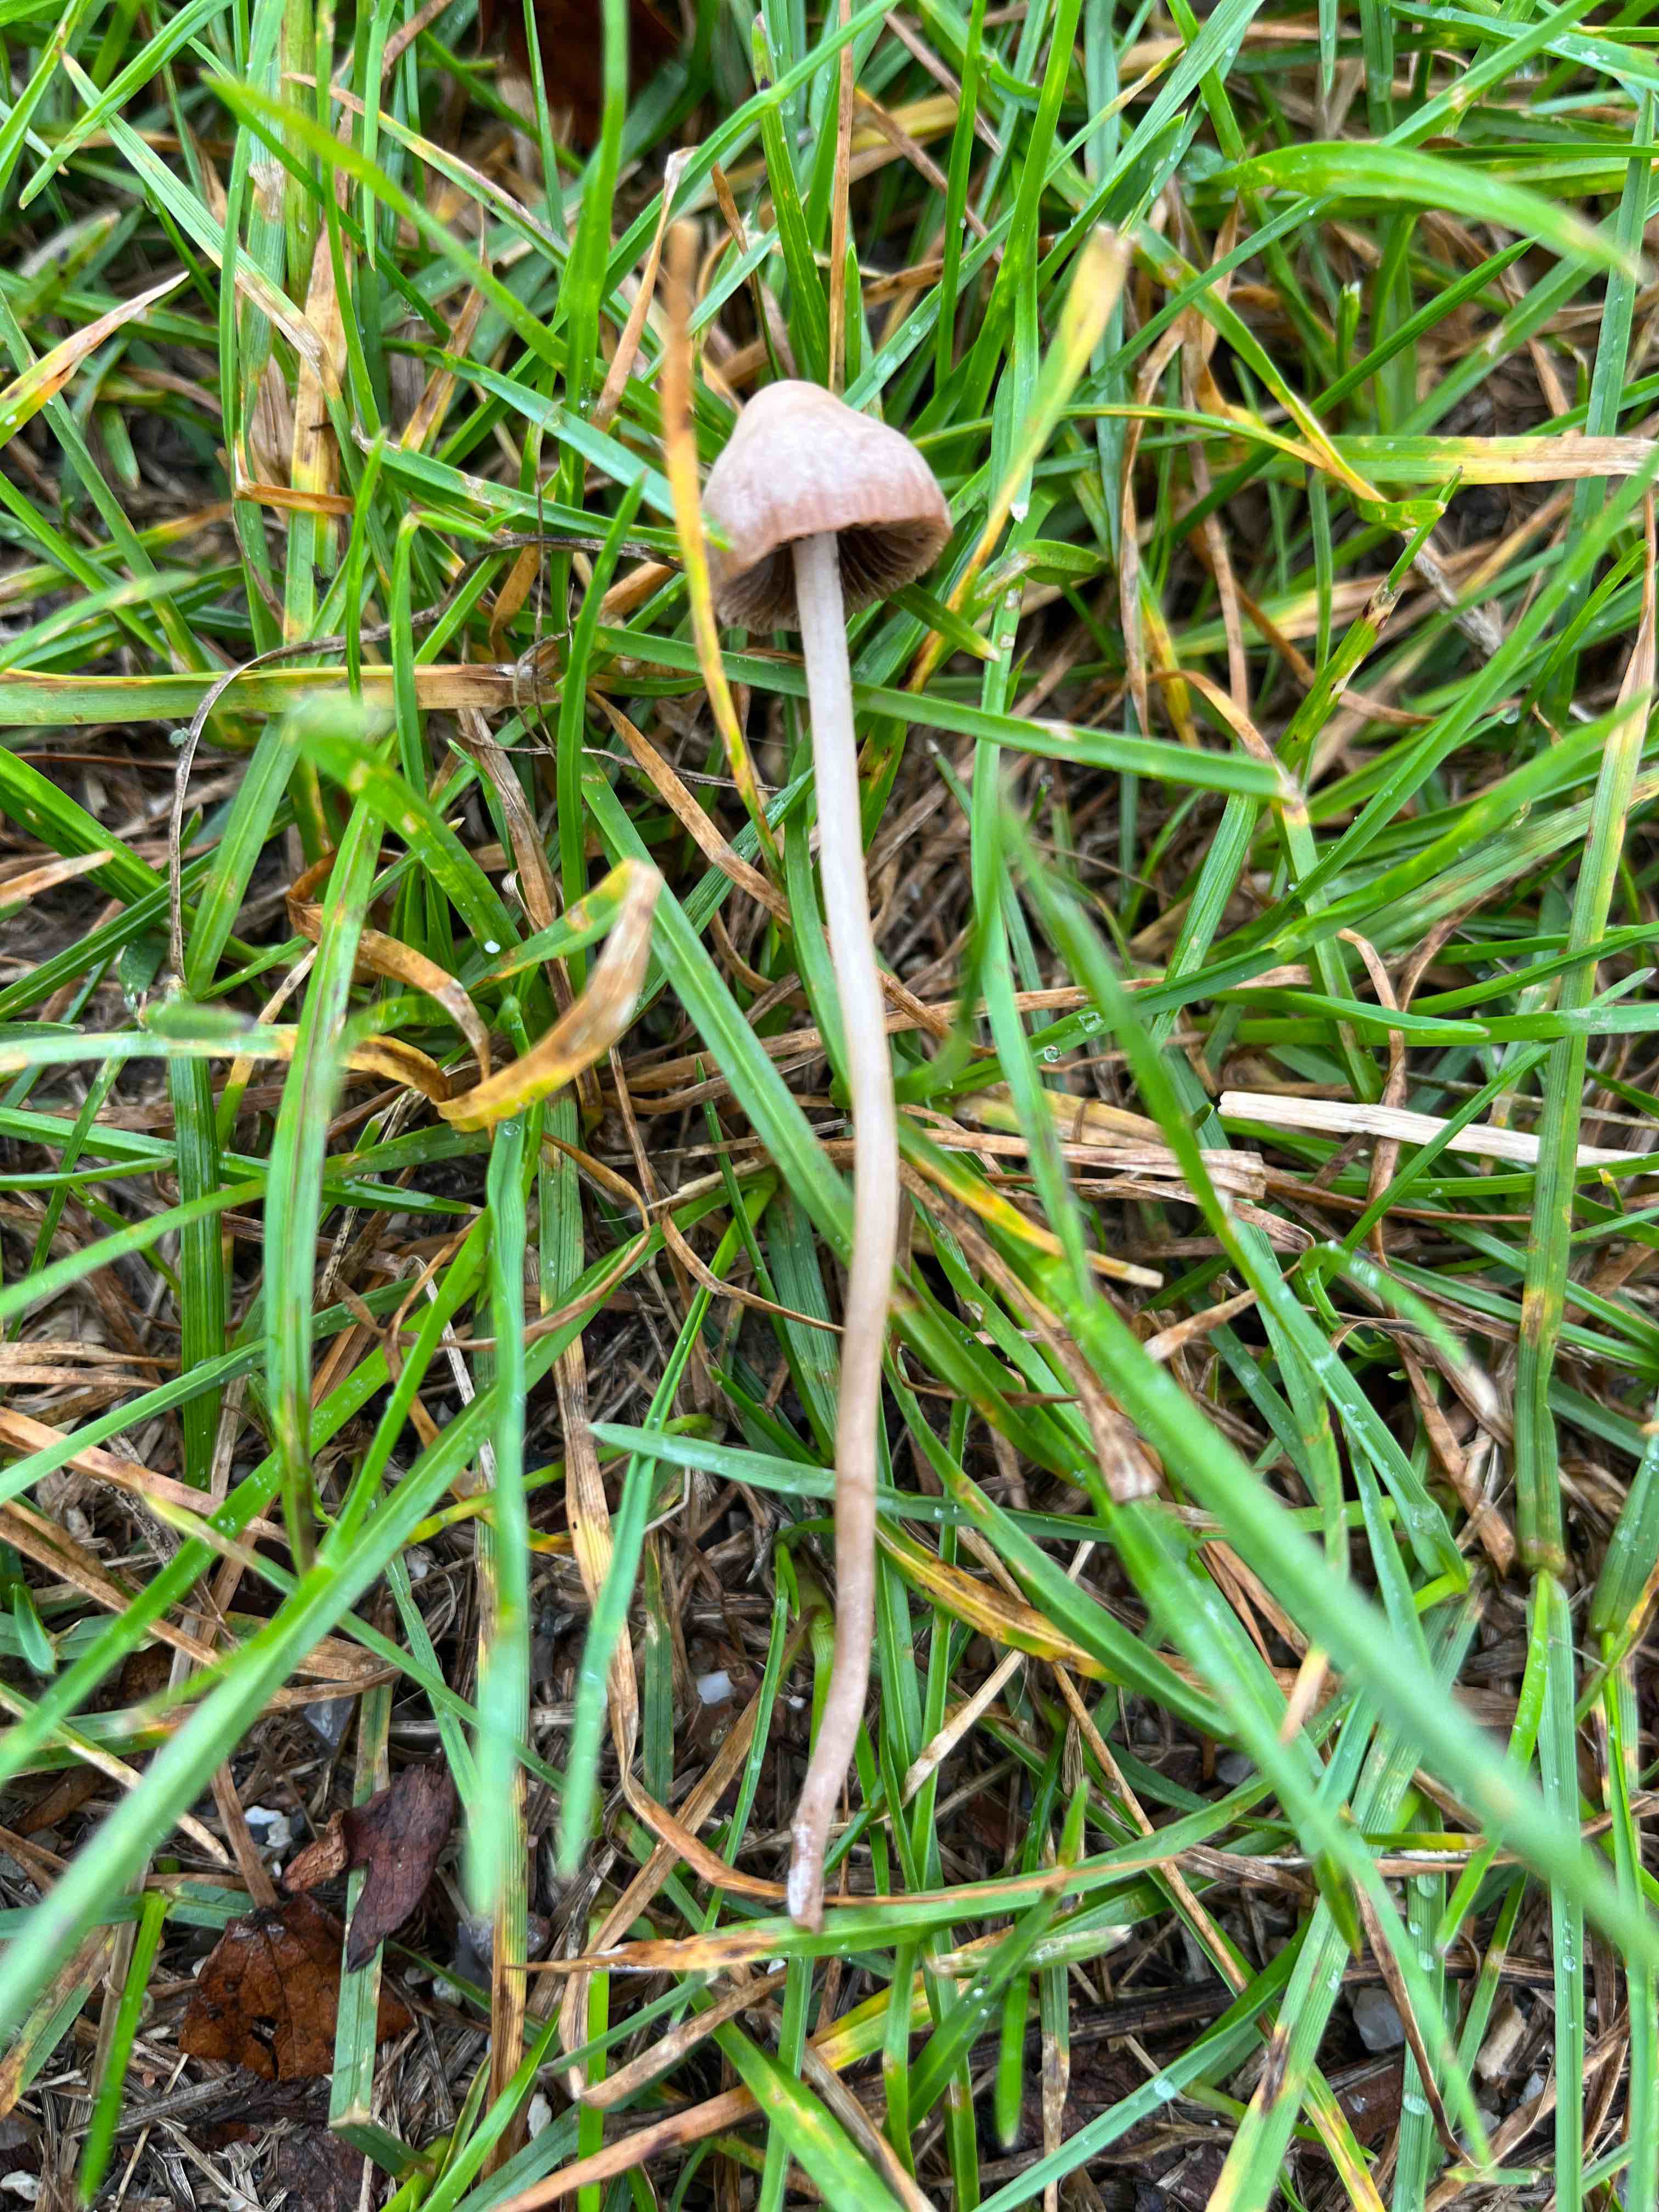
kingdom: Fungi
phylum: Basidiomycota
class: Agaricomycetes
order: Agaricales
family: Bolbitiaceae
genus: Panaeolina
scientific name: Panaeolina foenisecii
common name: høslætsvamp
